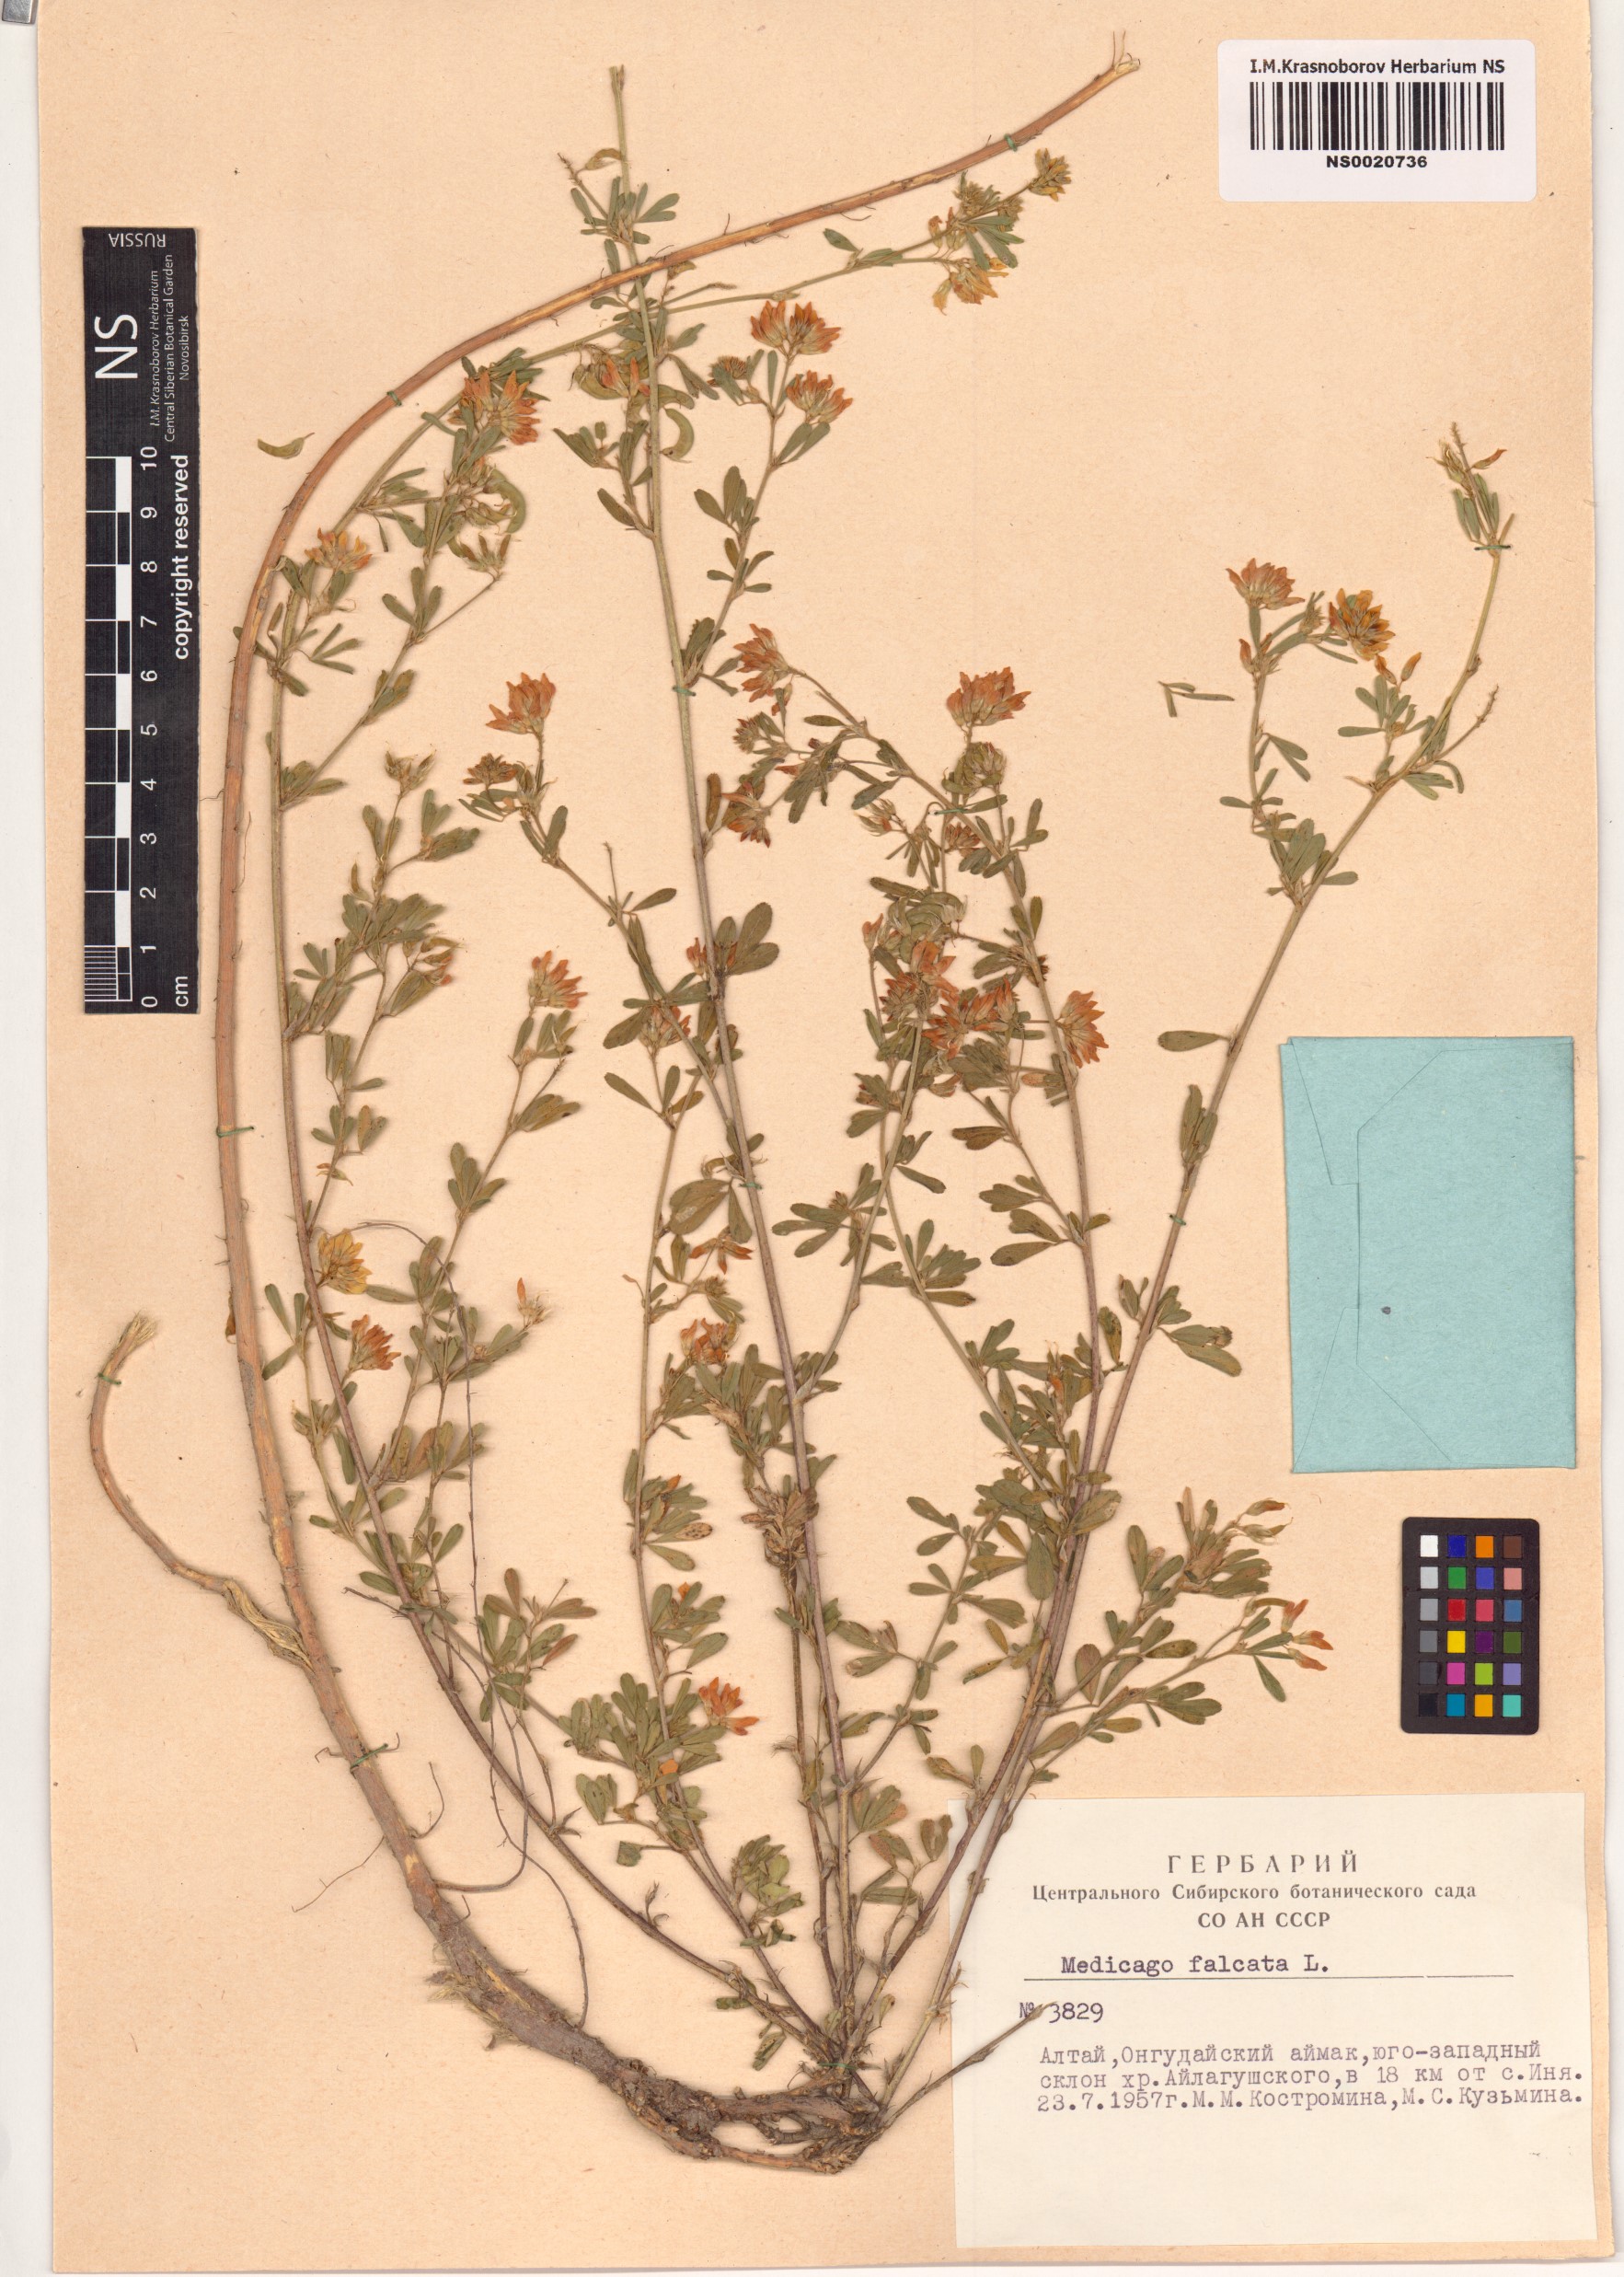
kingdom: Plantae
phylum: Tracheophyta
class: Magnoliopsida
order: Fabales
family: Fabaceae
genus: Medicago
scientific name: Medicago falcata
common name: Sickle medick
